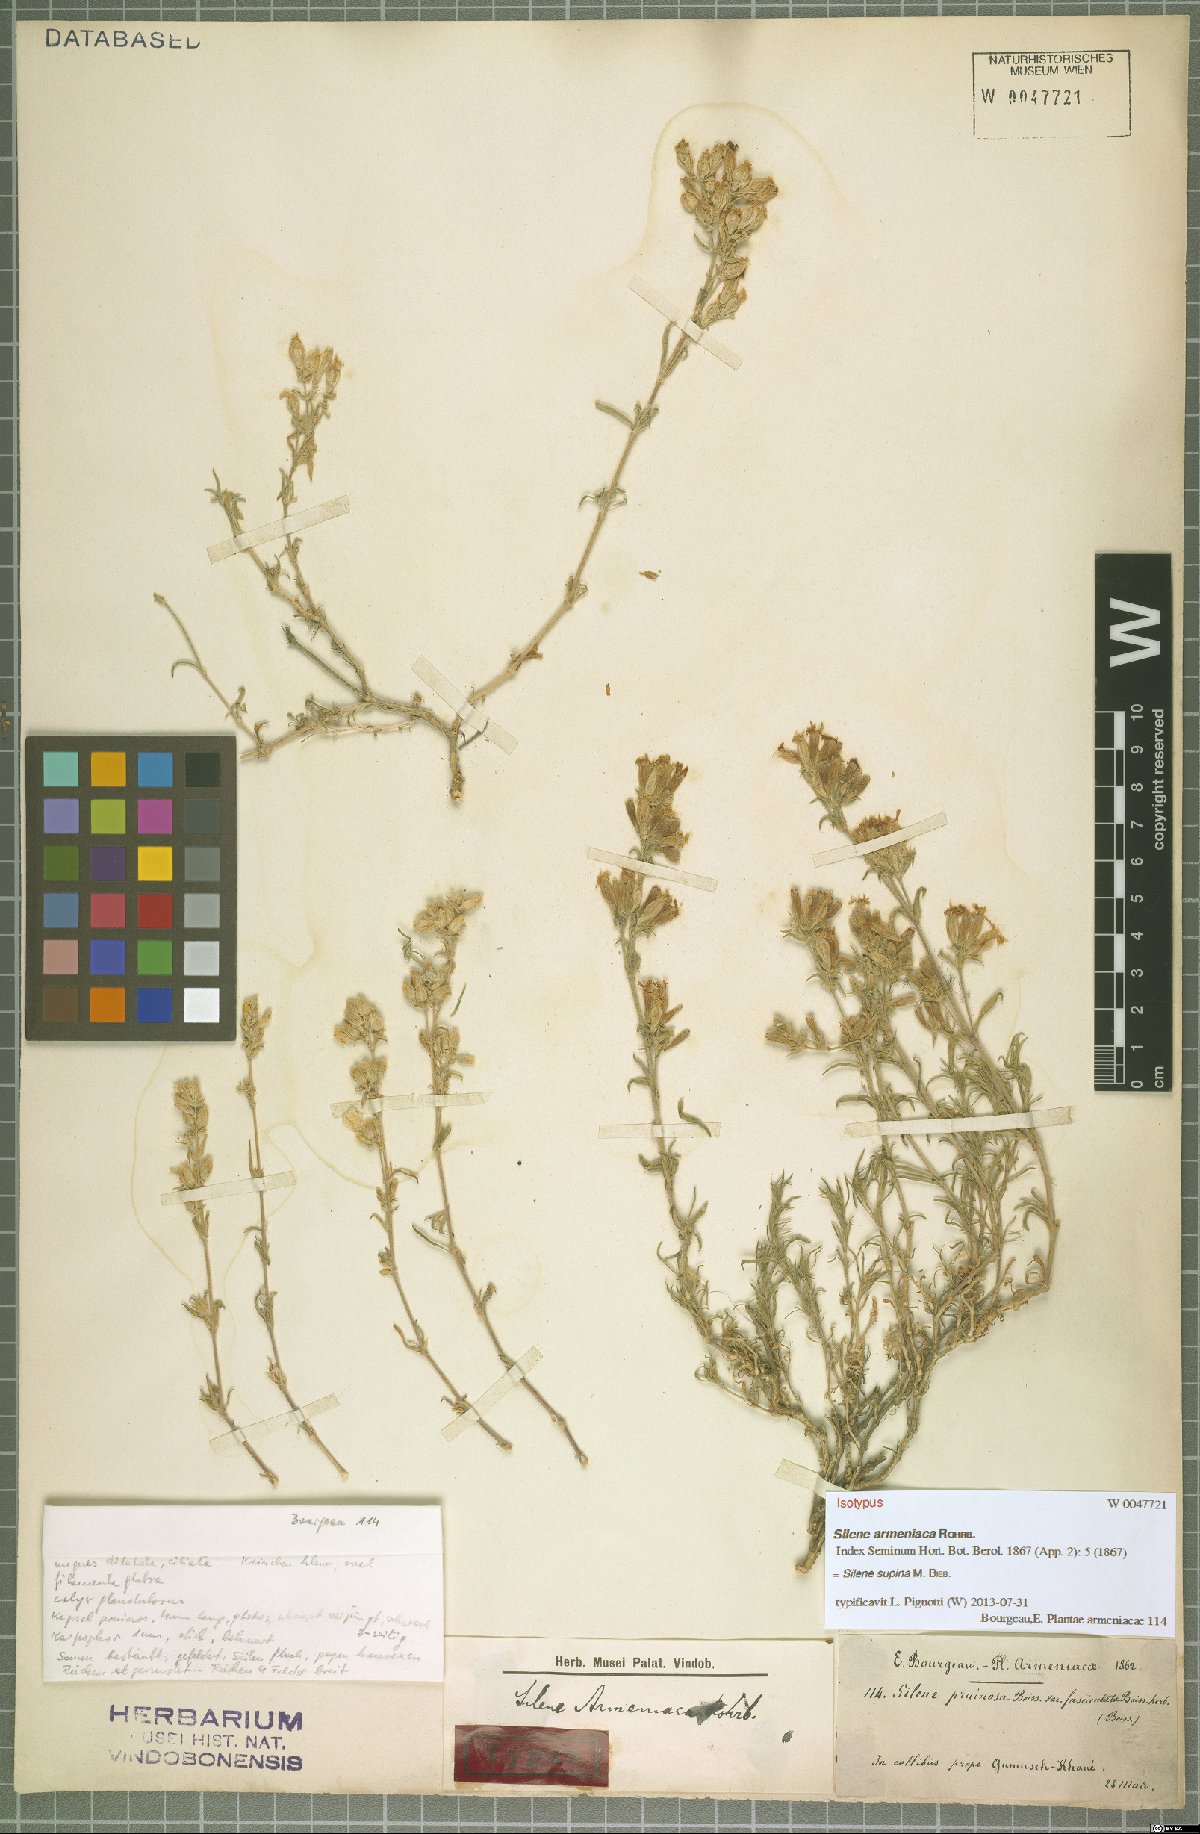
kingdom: Plantae
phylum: Tracheophyta
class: Magnoliopsida
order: Caryophyllales
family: Caryophyllaceae
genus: Silene
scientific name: Silene supina
